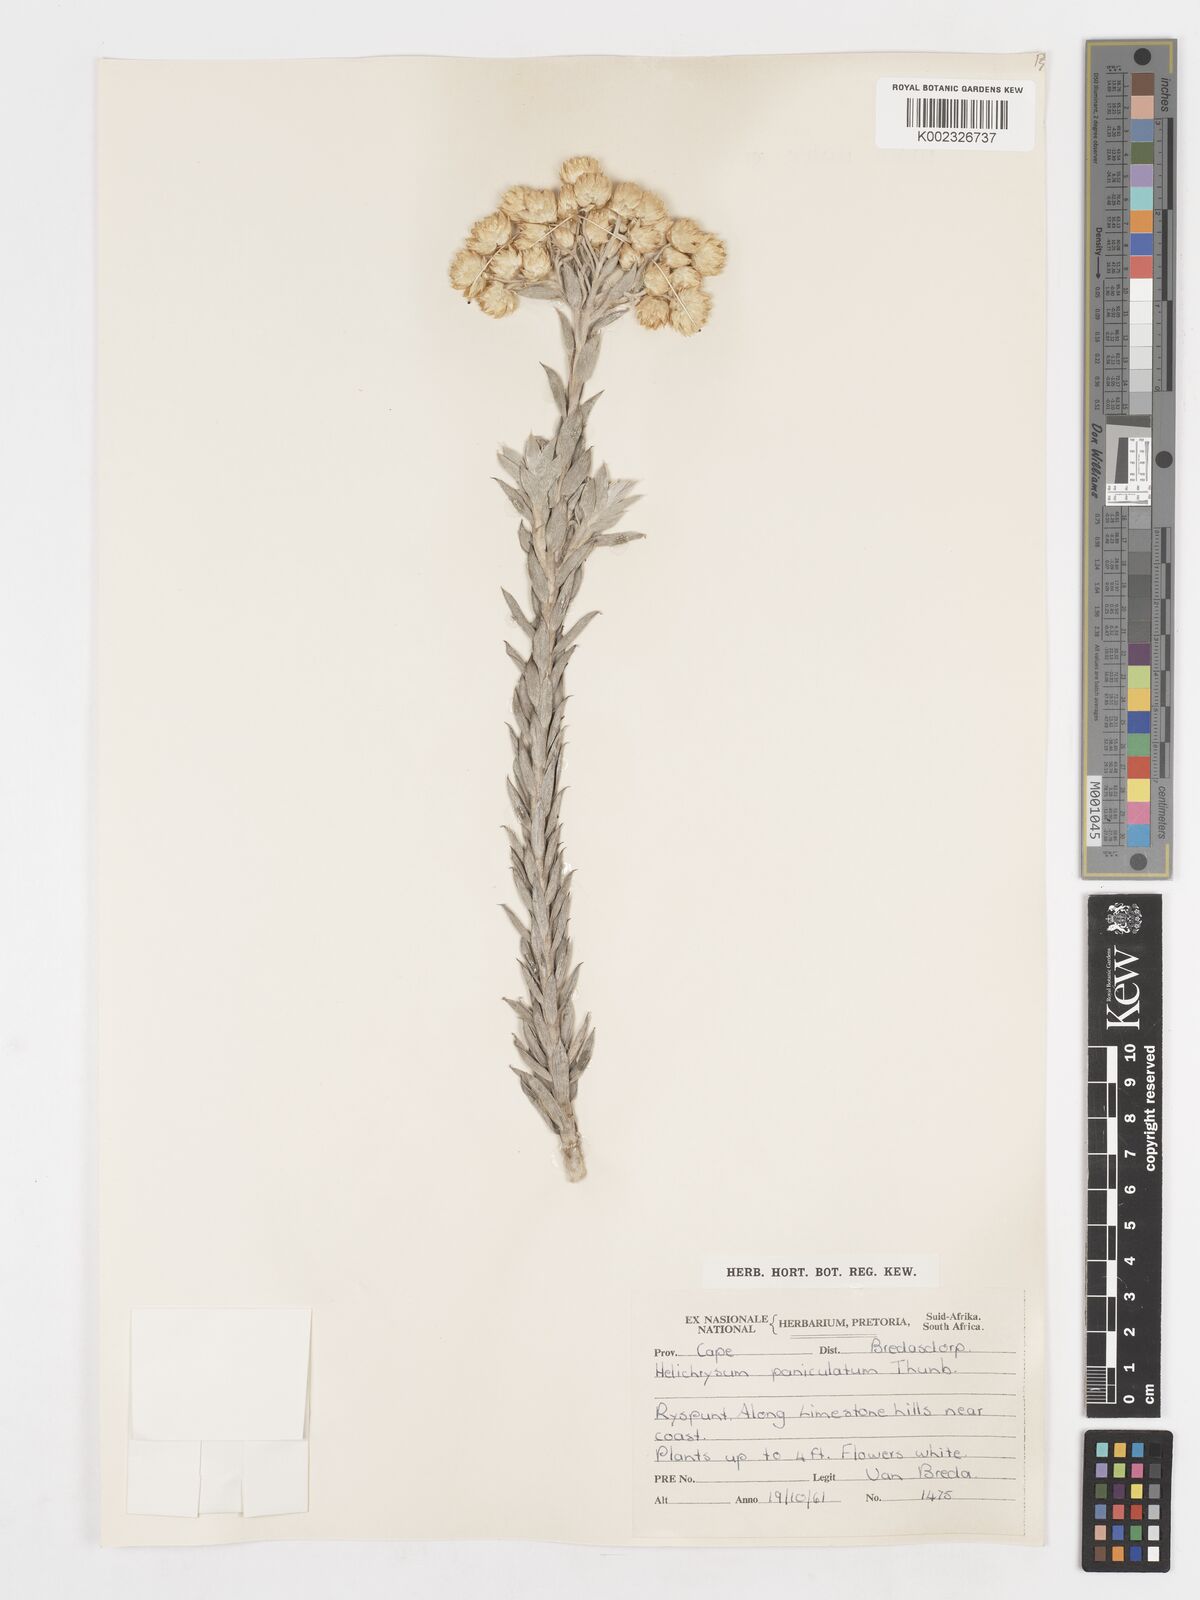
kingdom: Plantae
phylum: Tracheophyta
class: Magnoliopsida
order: Asterales
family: Asteraceae
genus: Achyranthemum
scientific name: Achyranthemum paniculatum
